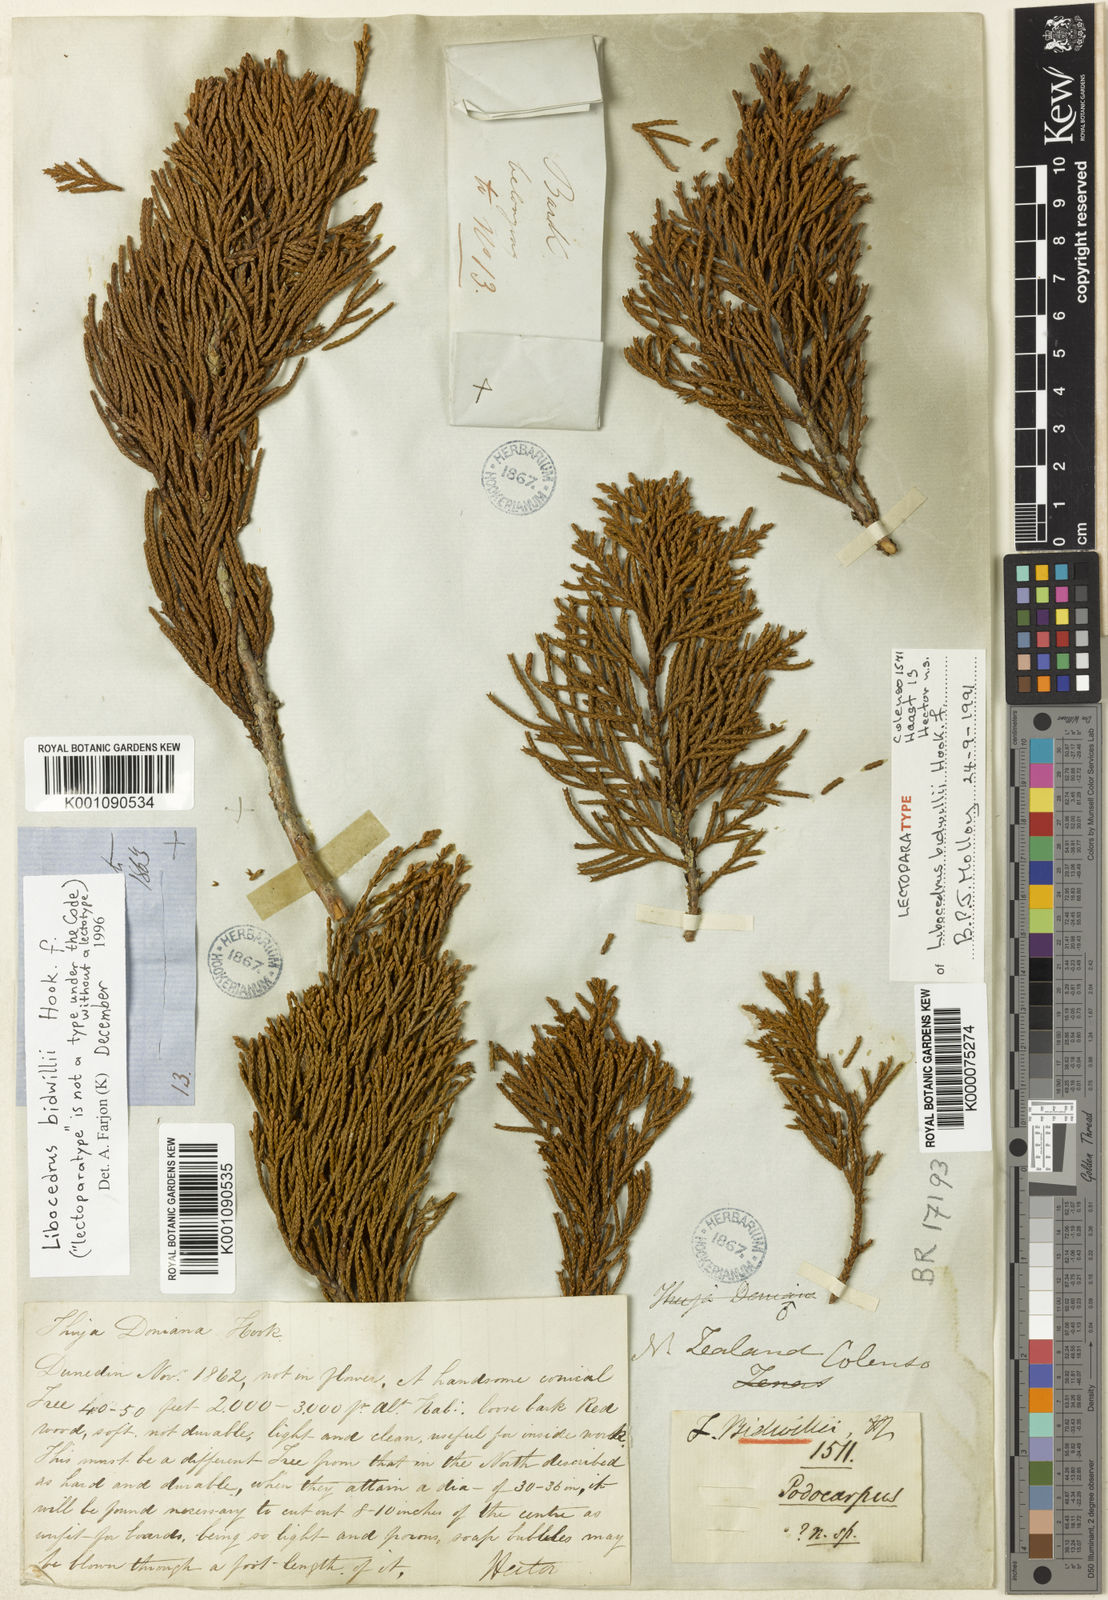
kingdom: Plantae
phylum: Tracheophyta
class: Pinopsida
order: Pinales
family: Cupressaceae
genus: Libocedrus
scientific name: Libocedrus bidwillii
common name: Cedar
